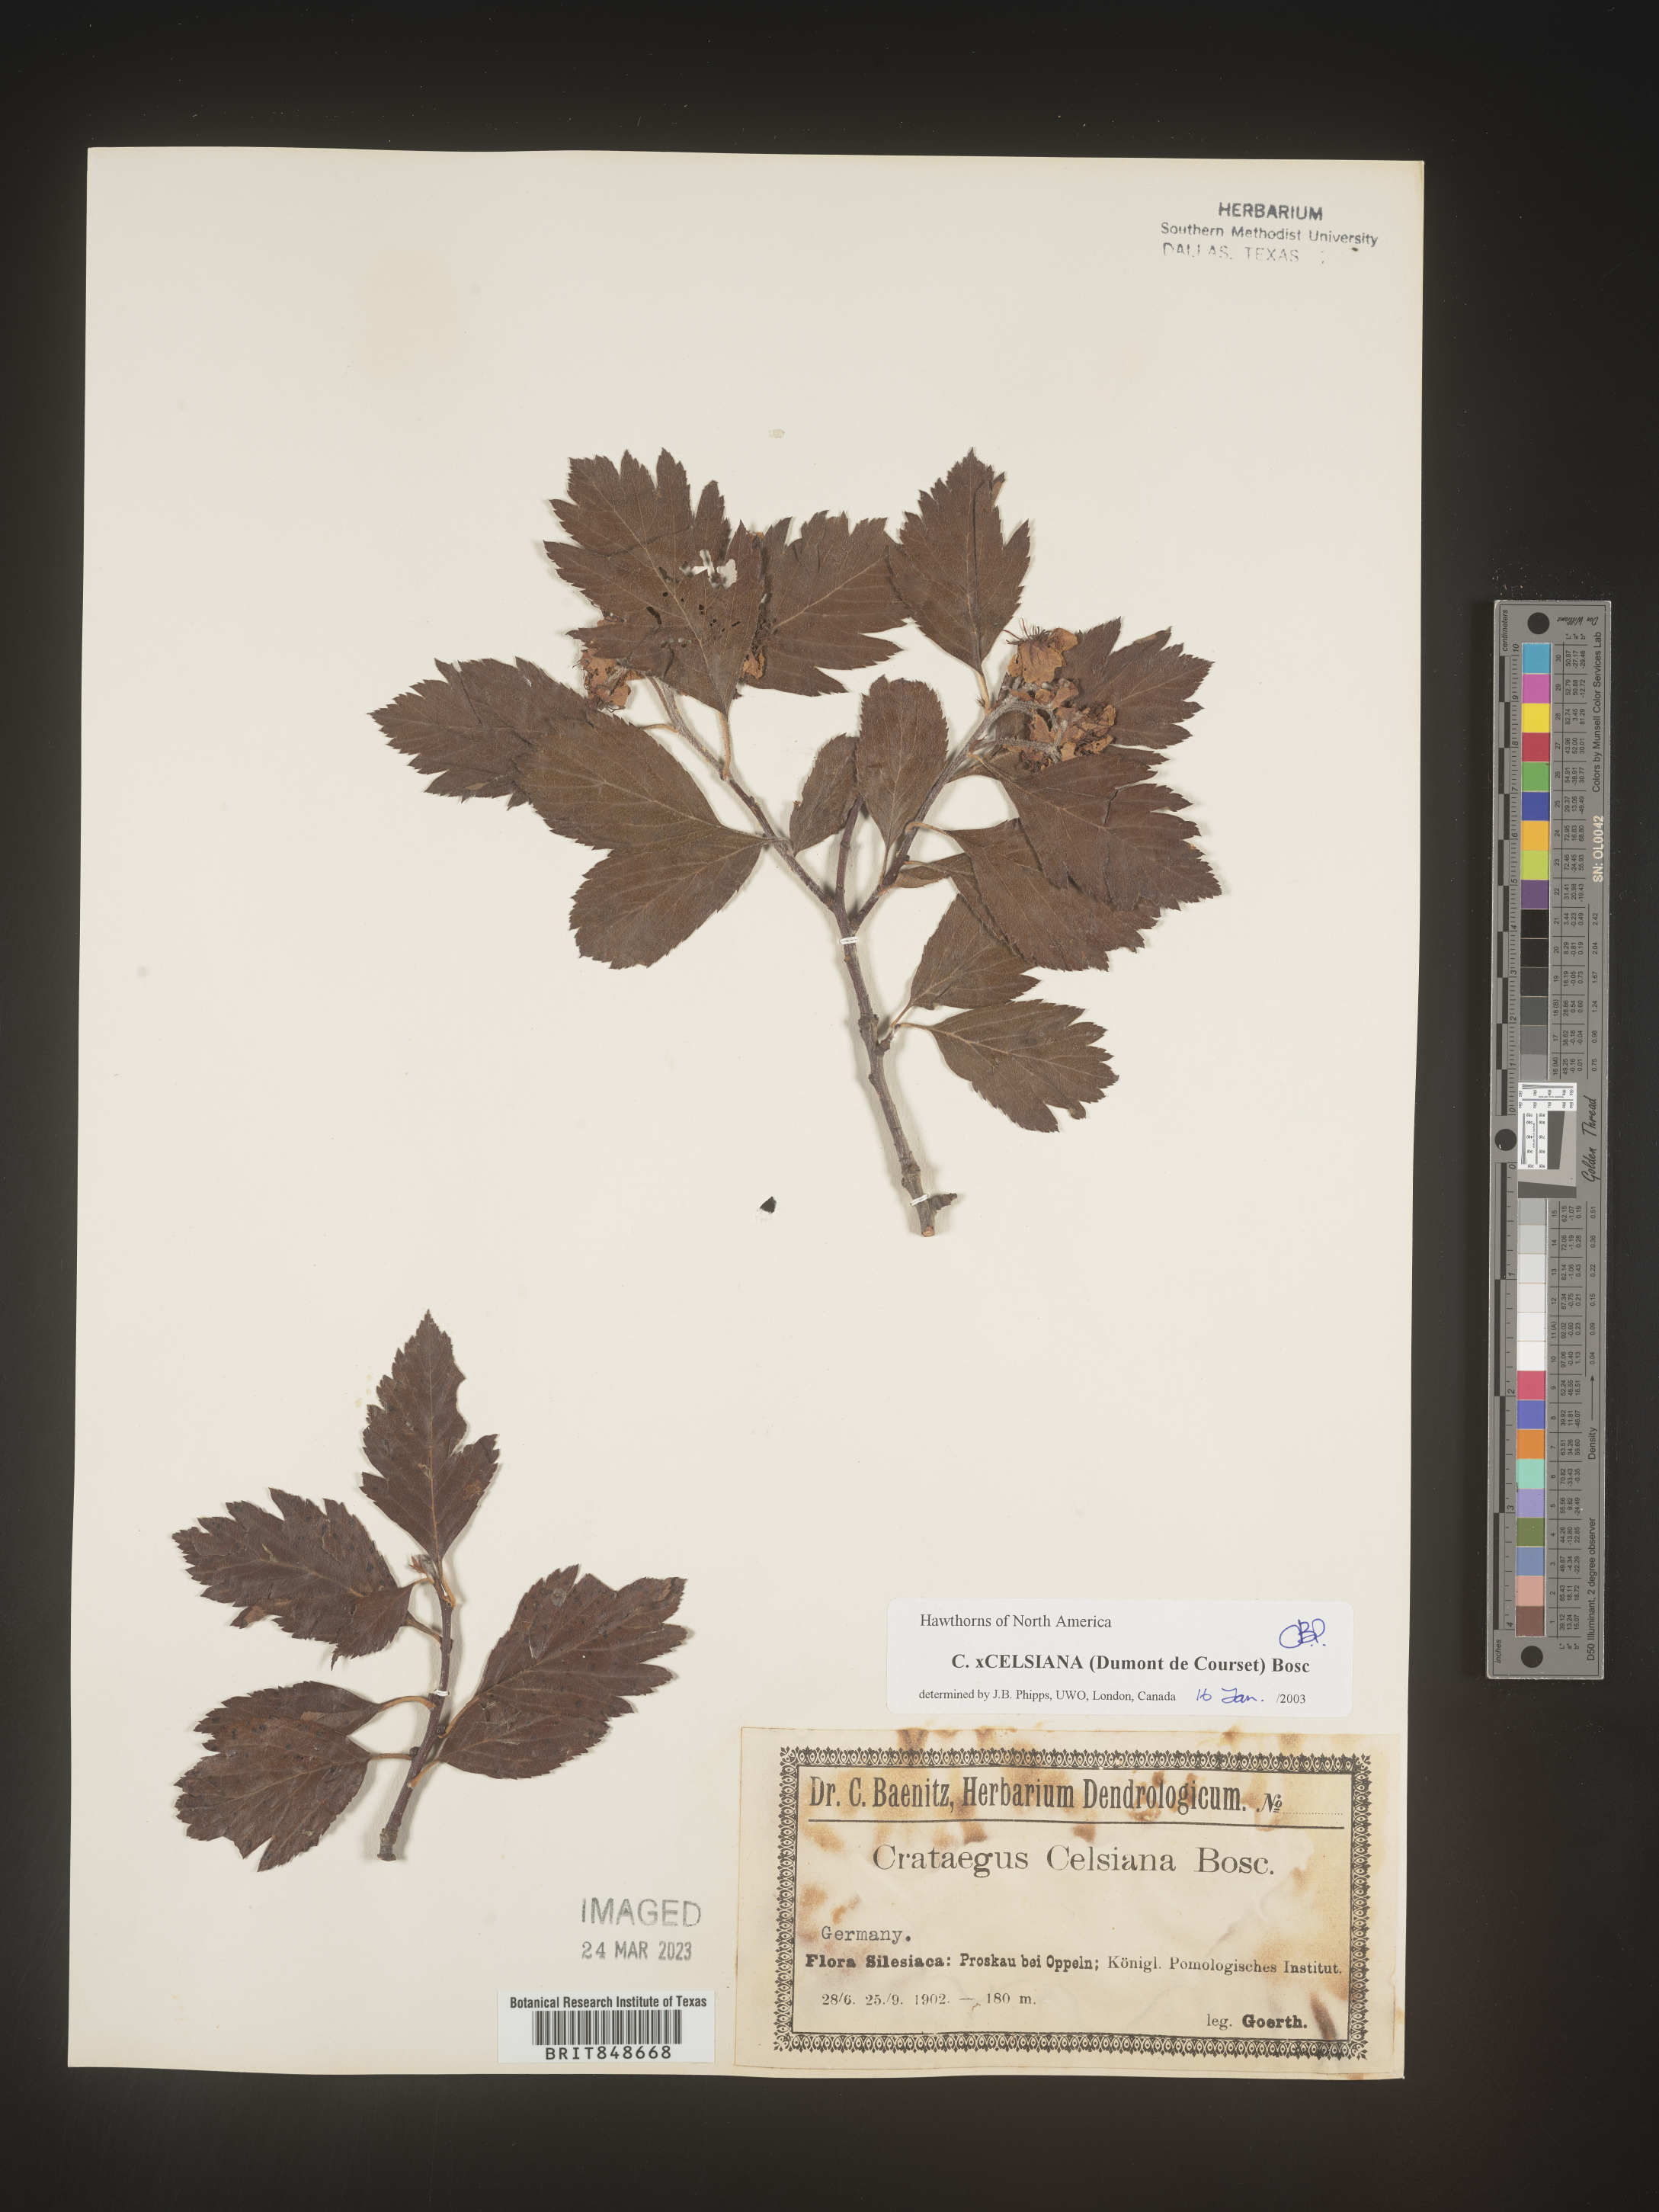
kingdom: Plantae
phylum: Tracheophyta
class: Magnoliopsida
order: Rosales
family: Rosaceae
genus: Crataegus
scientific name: Crataegus
